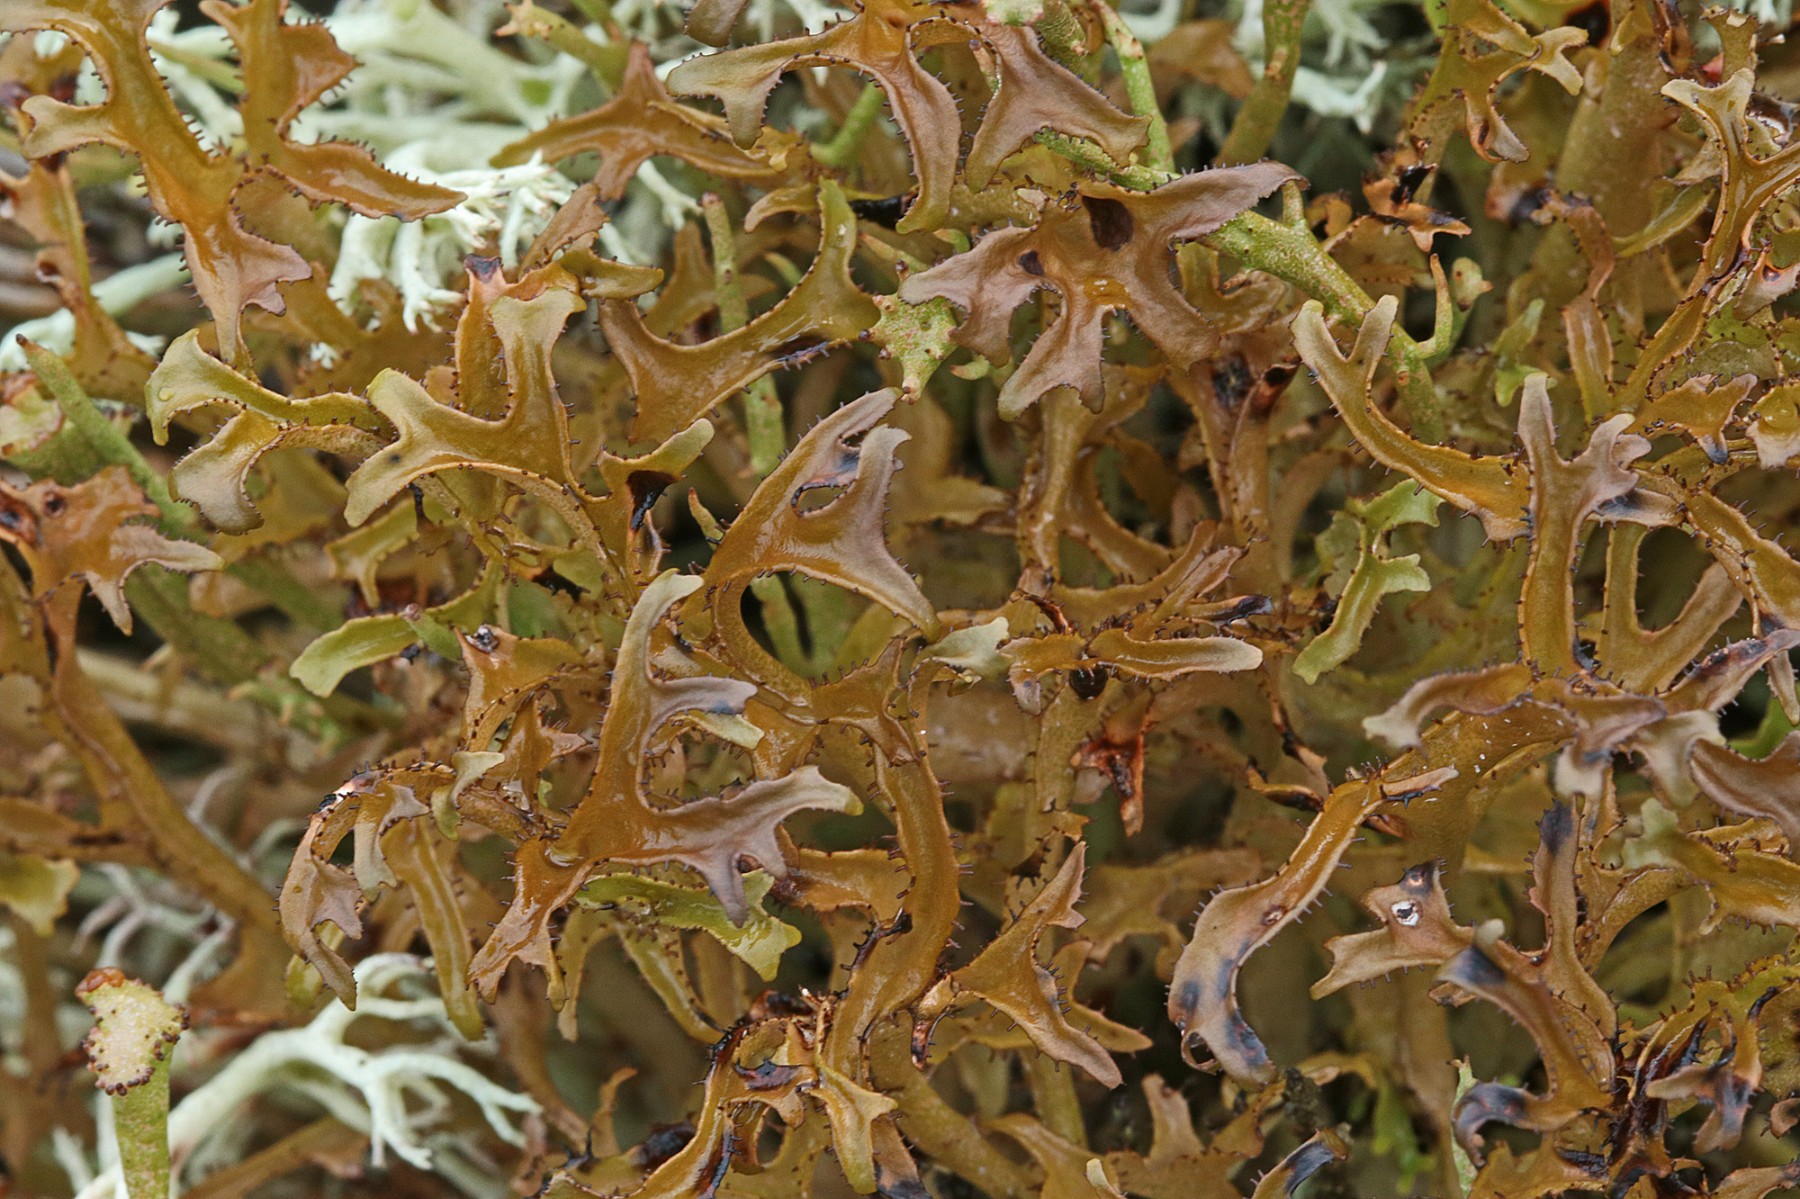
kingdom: Fungi
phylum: Ascomycota
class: Lecanoromycetes
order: Lecanorales
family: Parmeliaceae
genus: Cetraria
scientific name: Cetraria islandica
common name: islandsk kruslav
